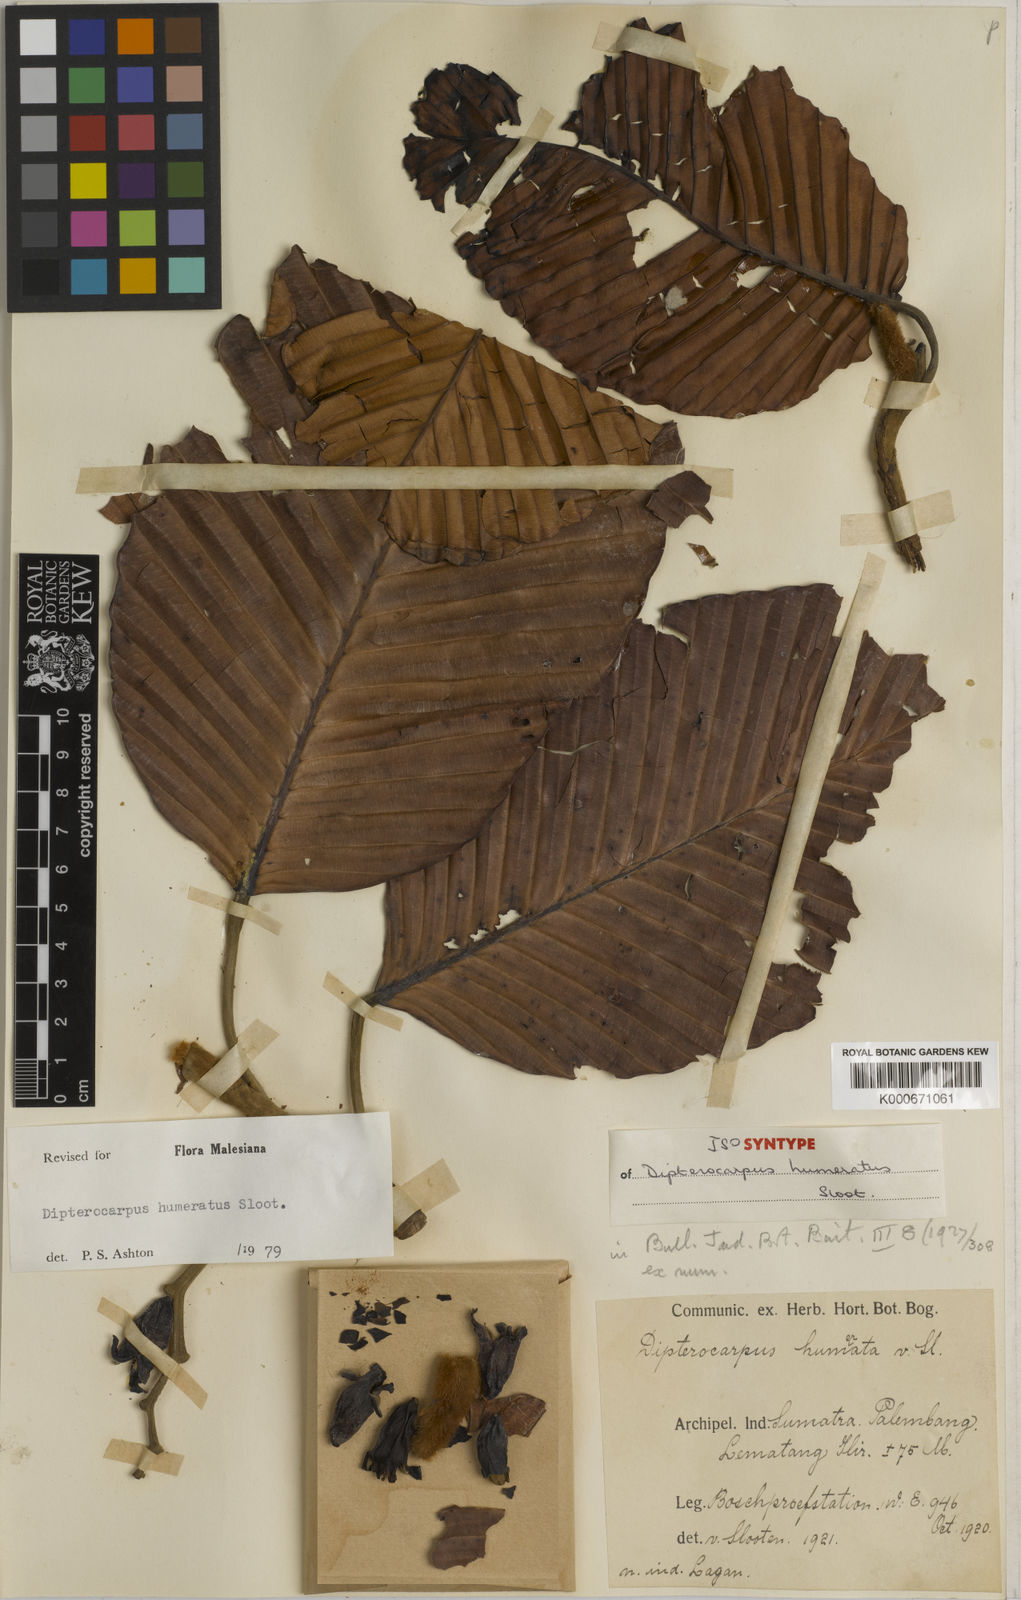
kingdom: Plantae
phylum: Tracheophyta
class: Magnoliopsida
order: Malvales
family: Dipterocarpaceae
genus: Dipterocarpus
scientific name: Dipterocarpus humeratus
